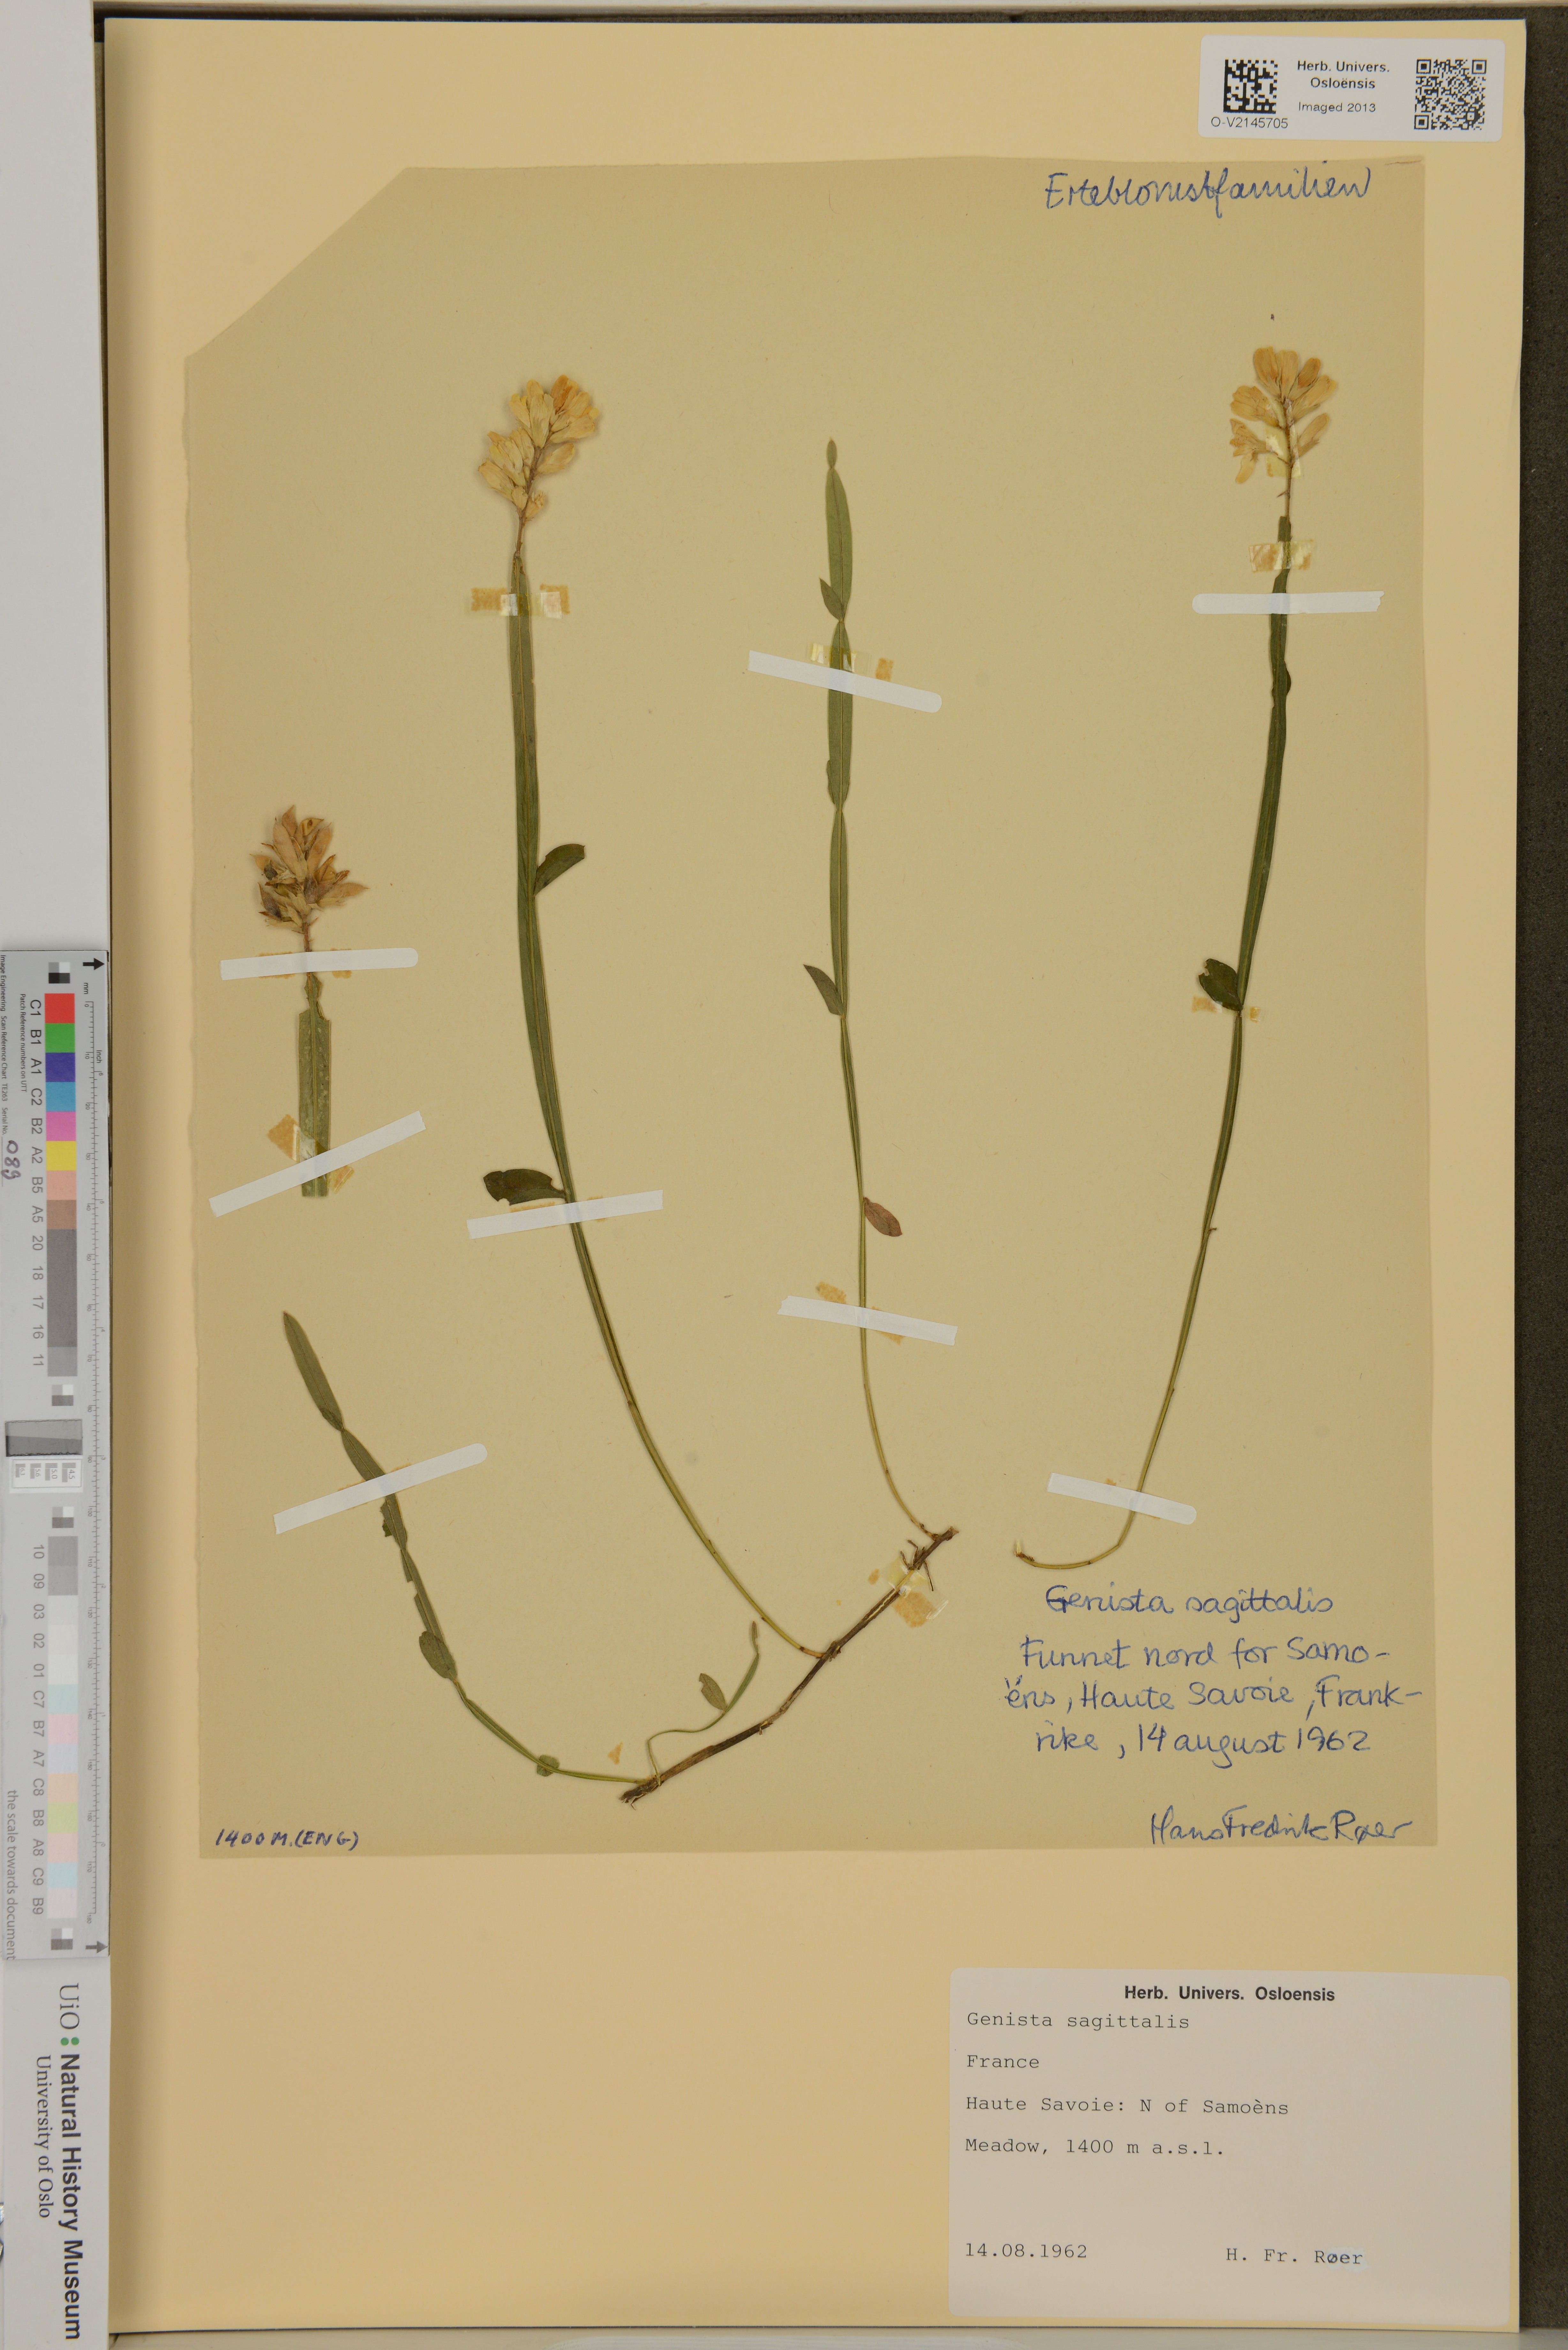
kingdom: Plantae
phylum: Tracheophyta
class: Magnoliopsida
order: Fabales
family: Fabaceae
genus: Genista
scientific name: Genista sagittalis
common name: Winged greenweed
